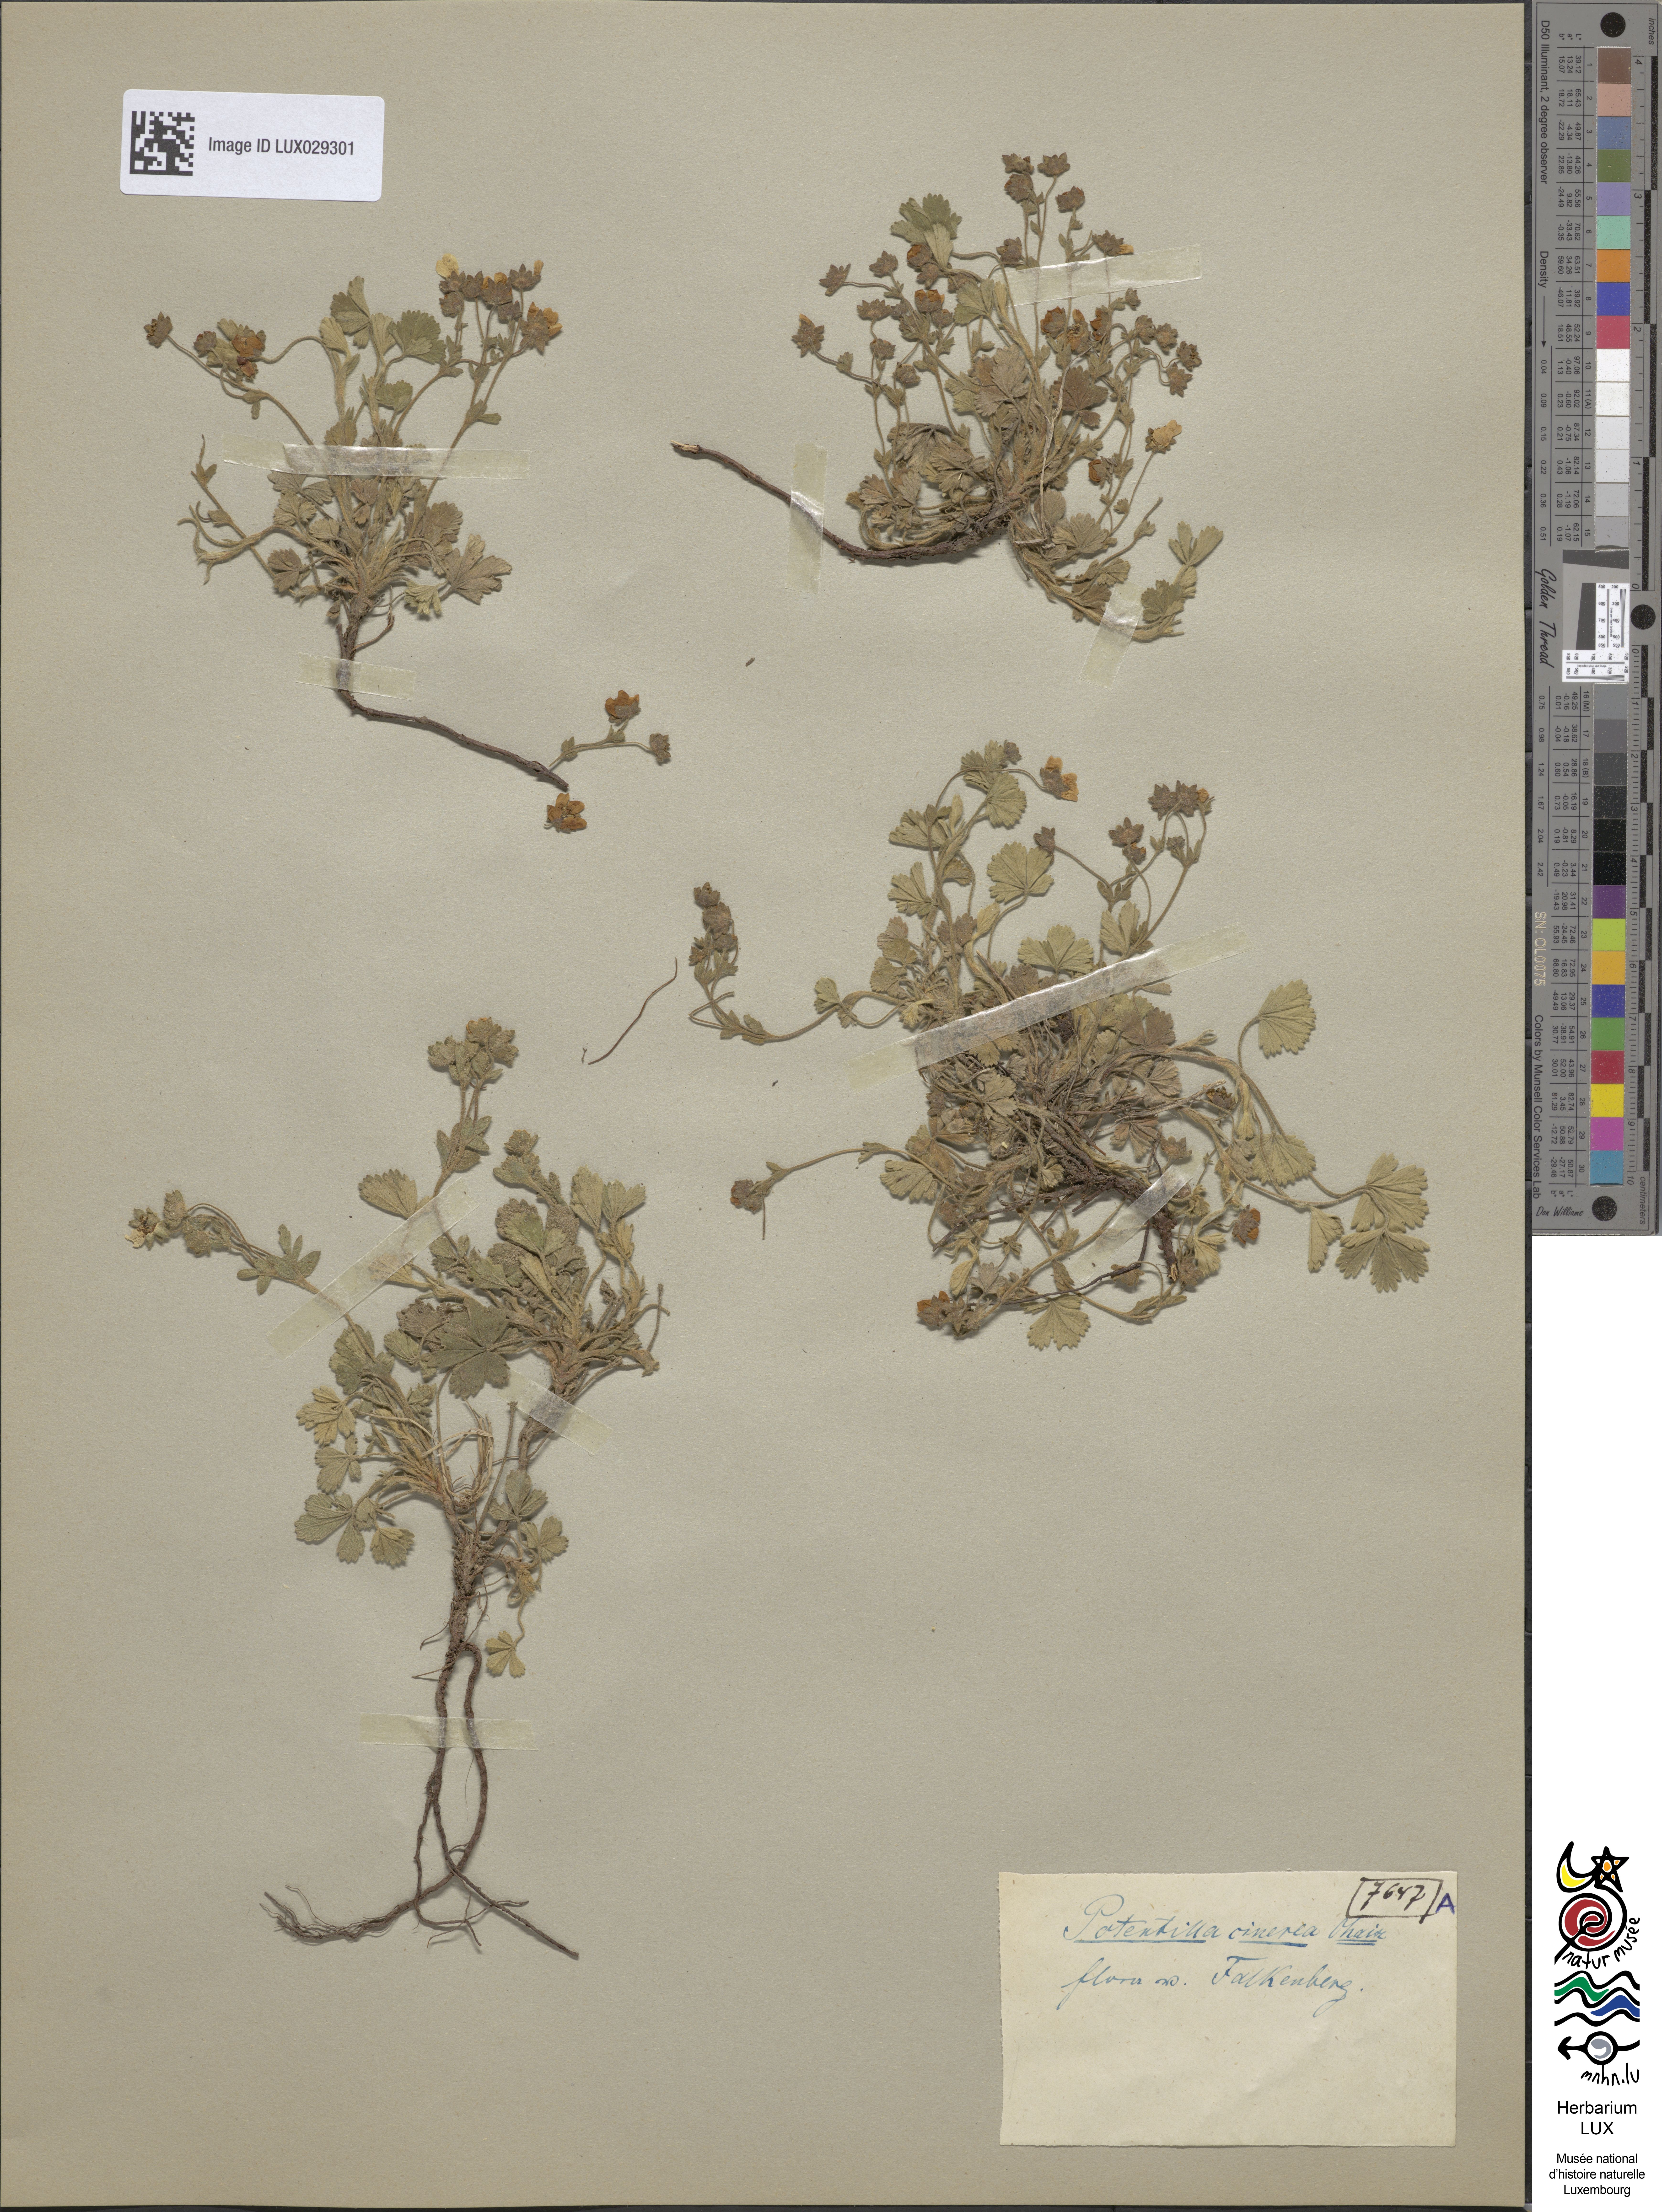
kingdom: Plantae
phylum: Tracheophyta
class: Magnoliopsida
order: Rosales
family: Rosaceae
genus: Potentilla
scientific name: Potentilla cinerea
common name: Ashy cinquefoil
